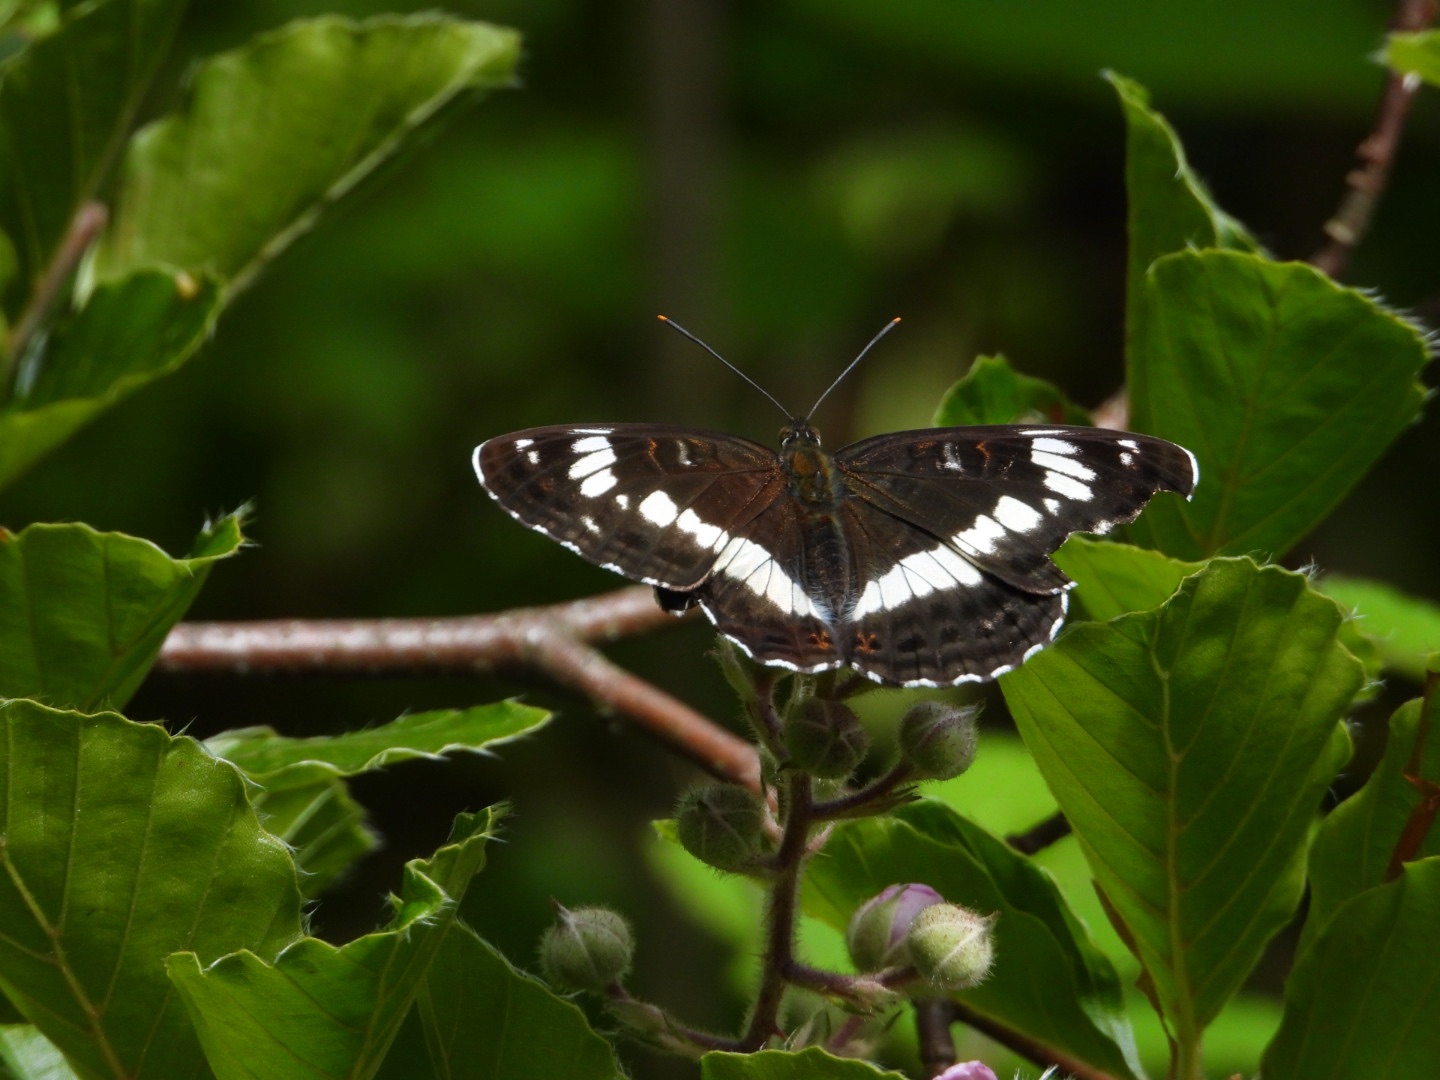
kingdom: Animalia
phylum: Arthropoda
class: Insecta
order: Lepidoptera
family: Nymphalidae
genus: Ladoga
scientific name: Ladoga camilla
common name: Hvid admiral
